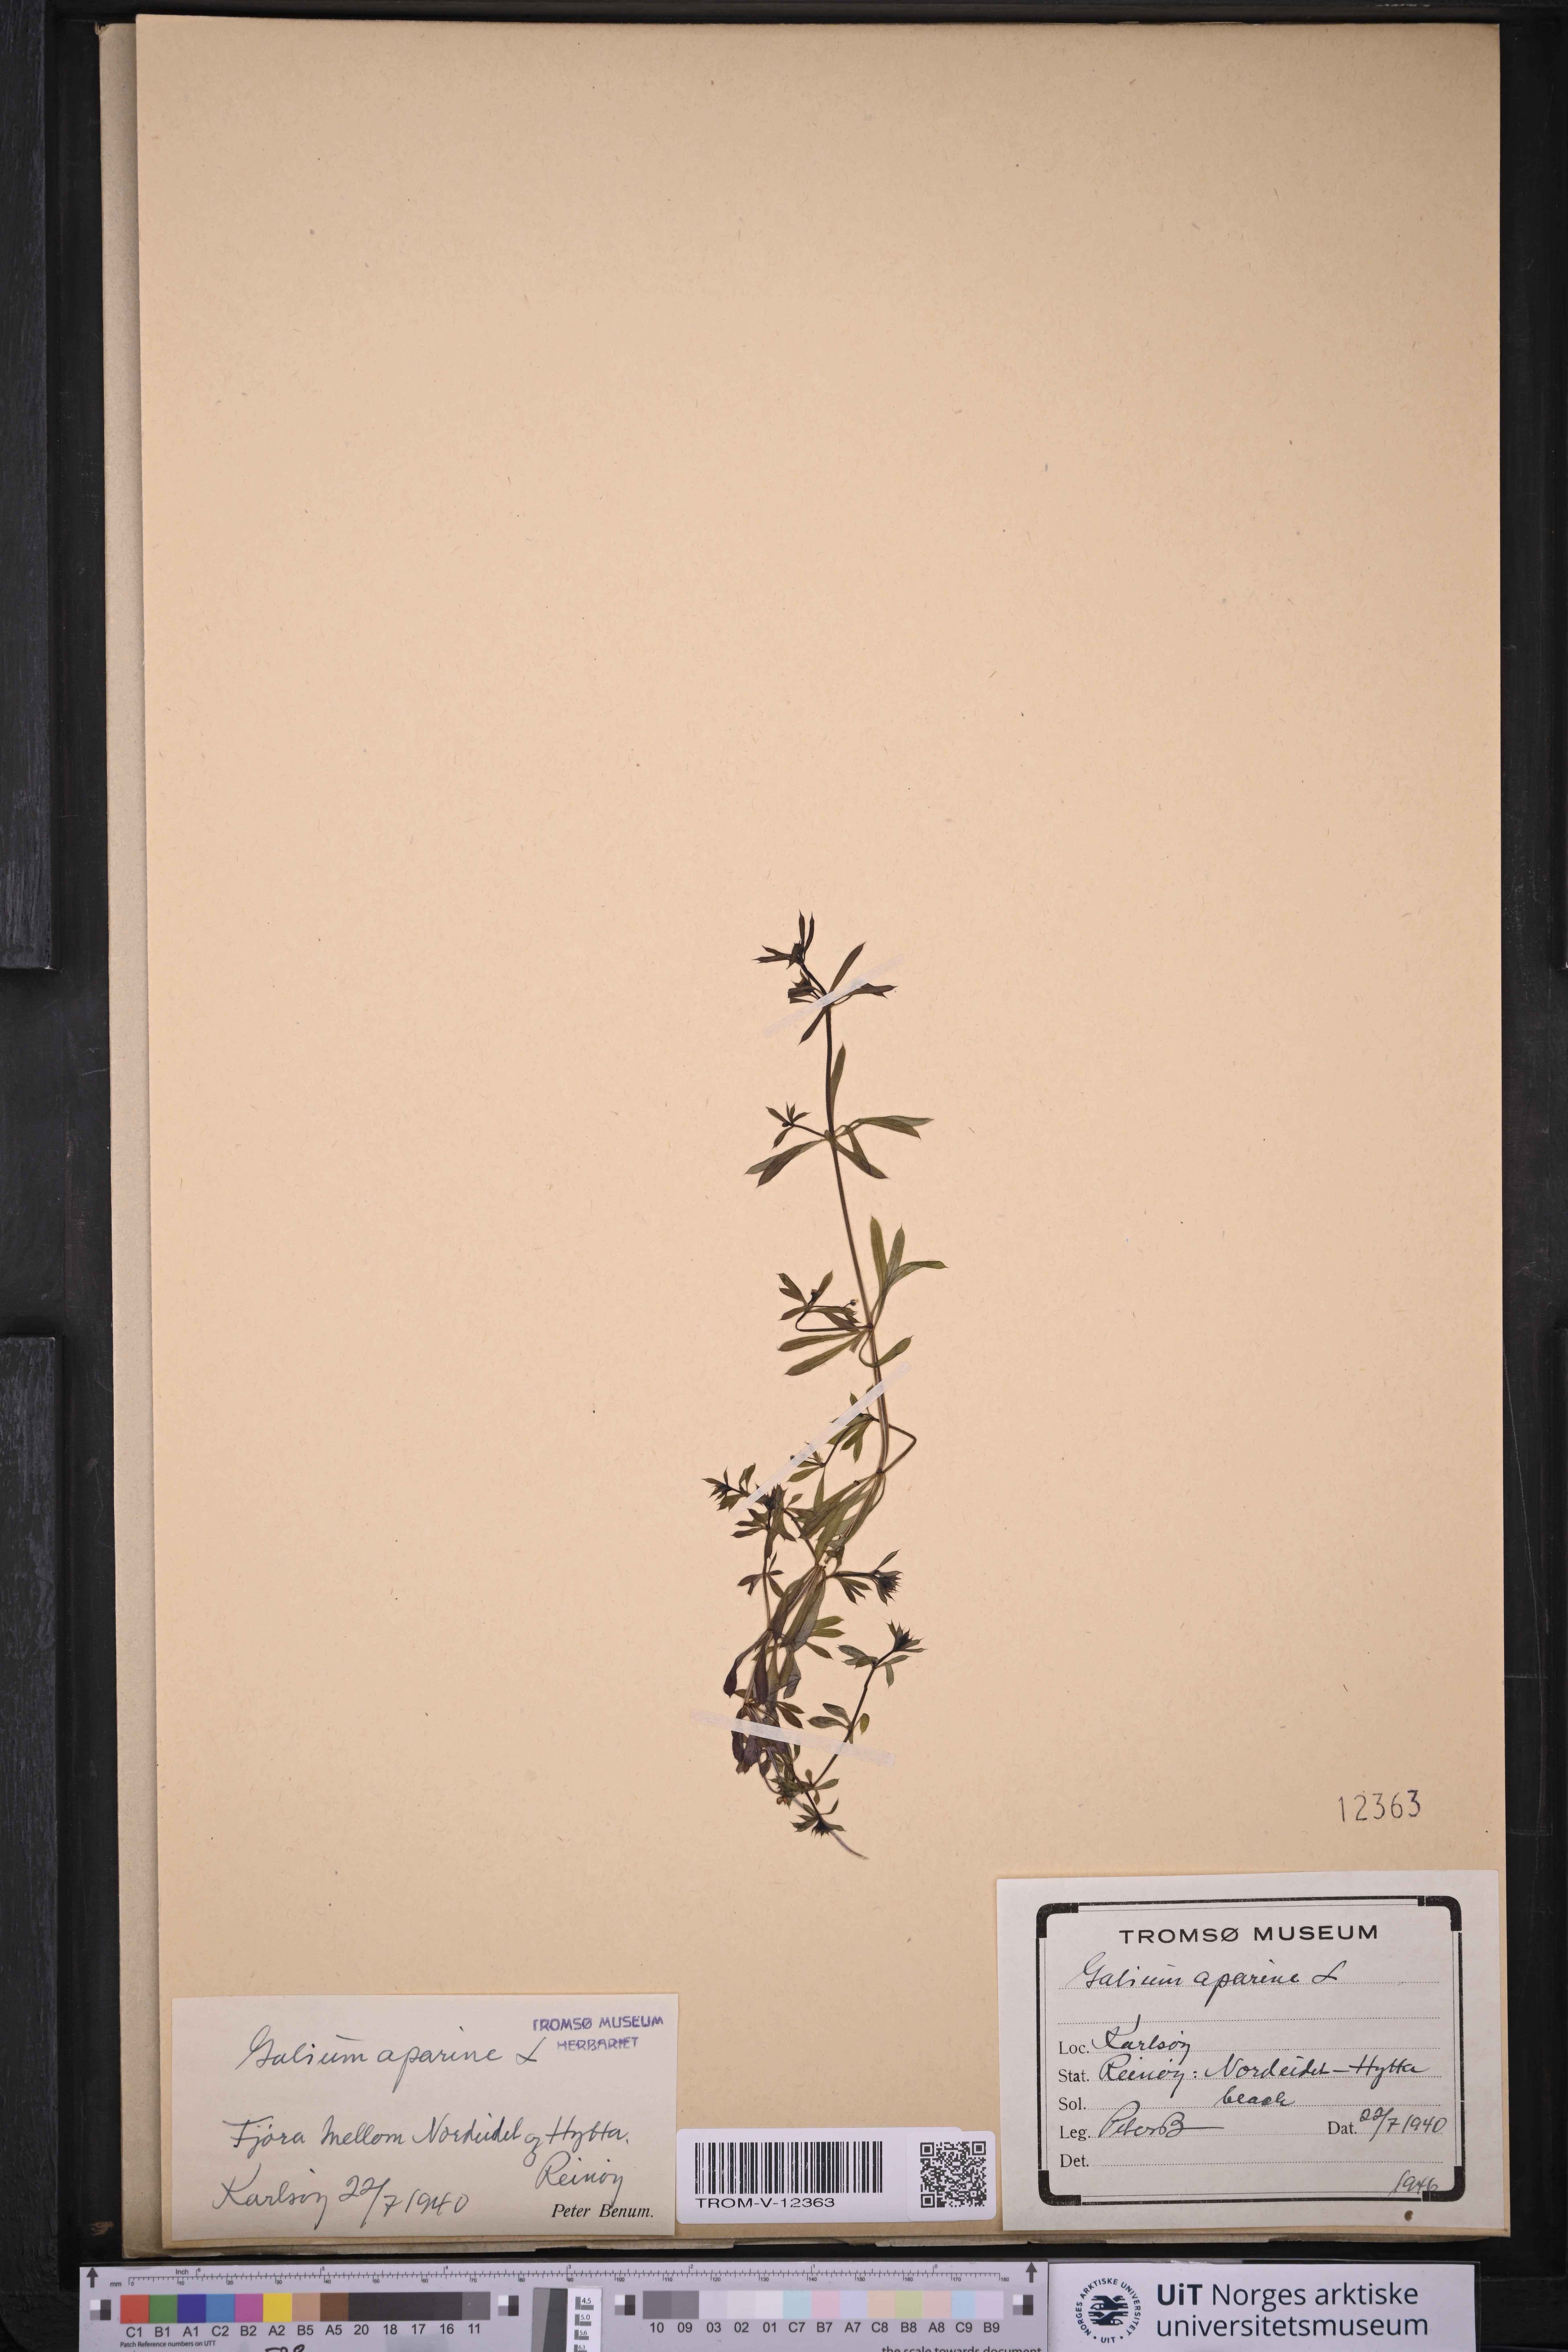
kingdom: Plantae
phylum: Tracheophyta
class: Magnoliopsida
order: Gentianales
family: Rubiaceae
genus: Galium
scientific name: Galium aparine
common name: Cleavers
